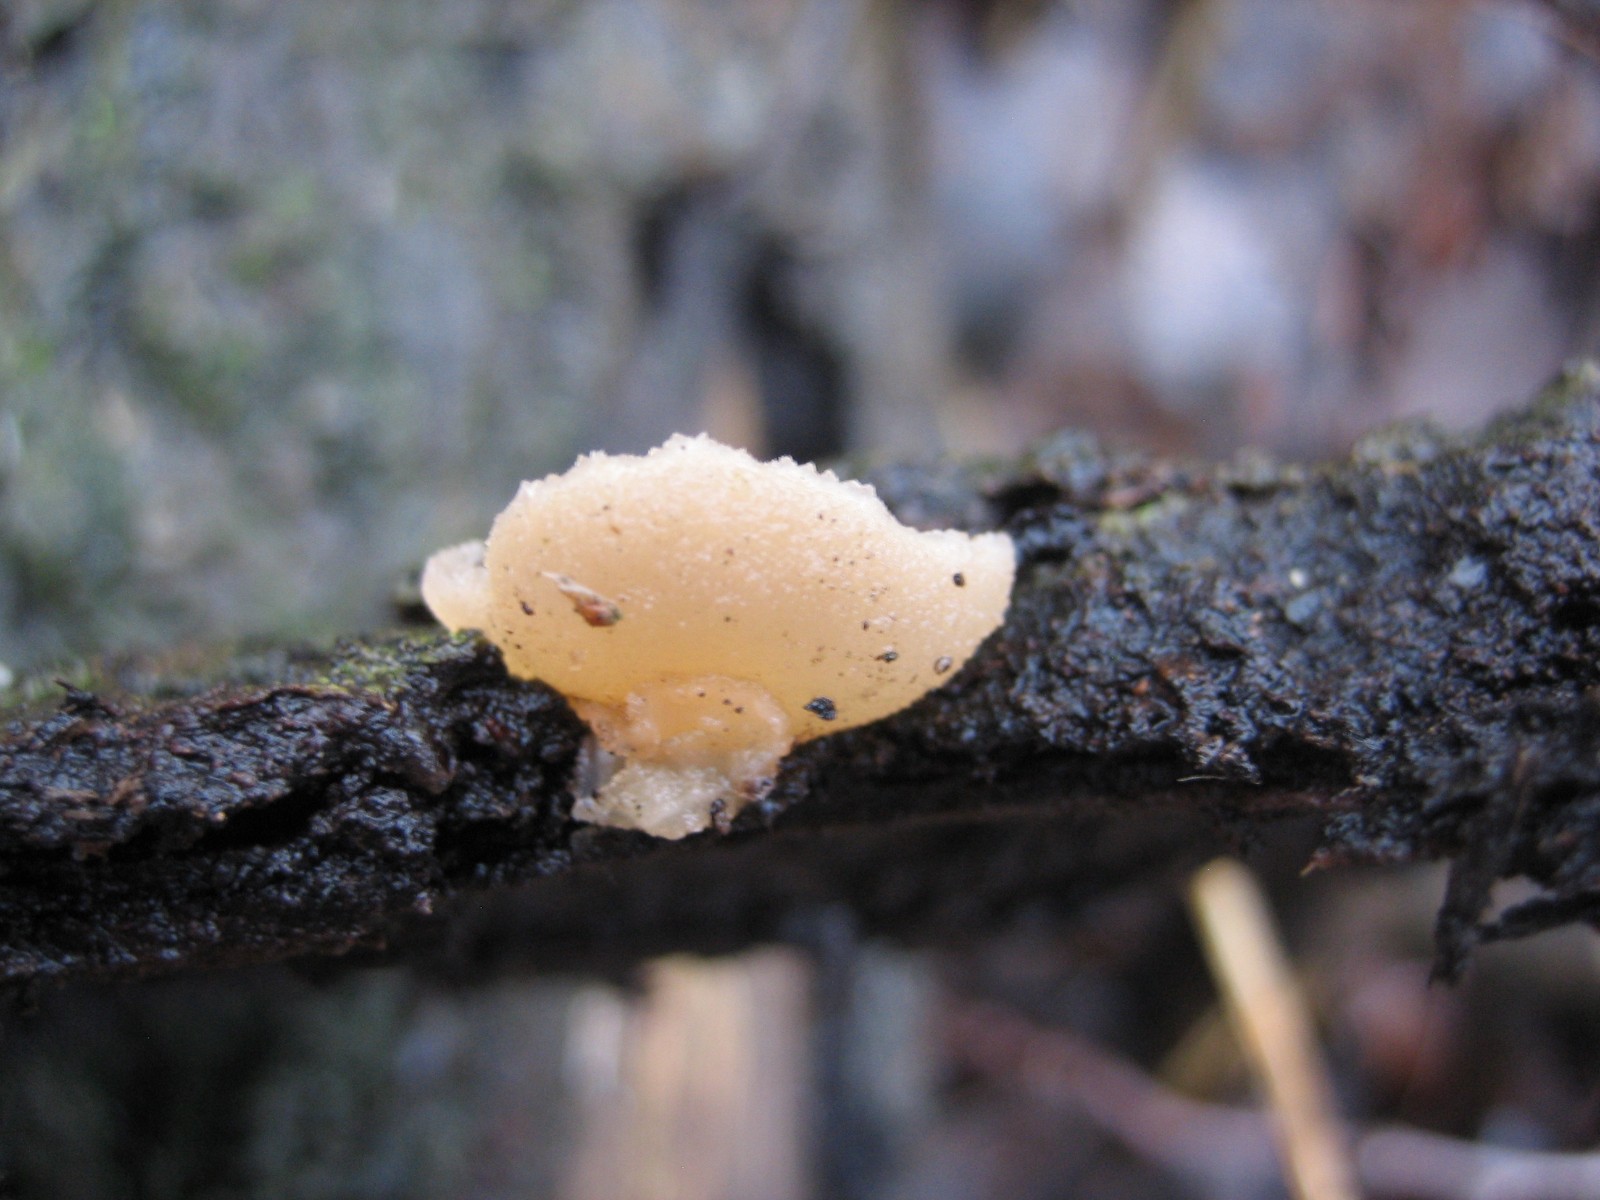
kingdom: Fungi
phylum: Ascomycota
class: Pezizomycetes
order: Pezizales
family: Pezizaceae
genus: Peziza
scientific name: Peziza
